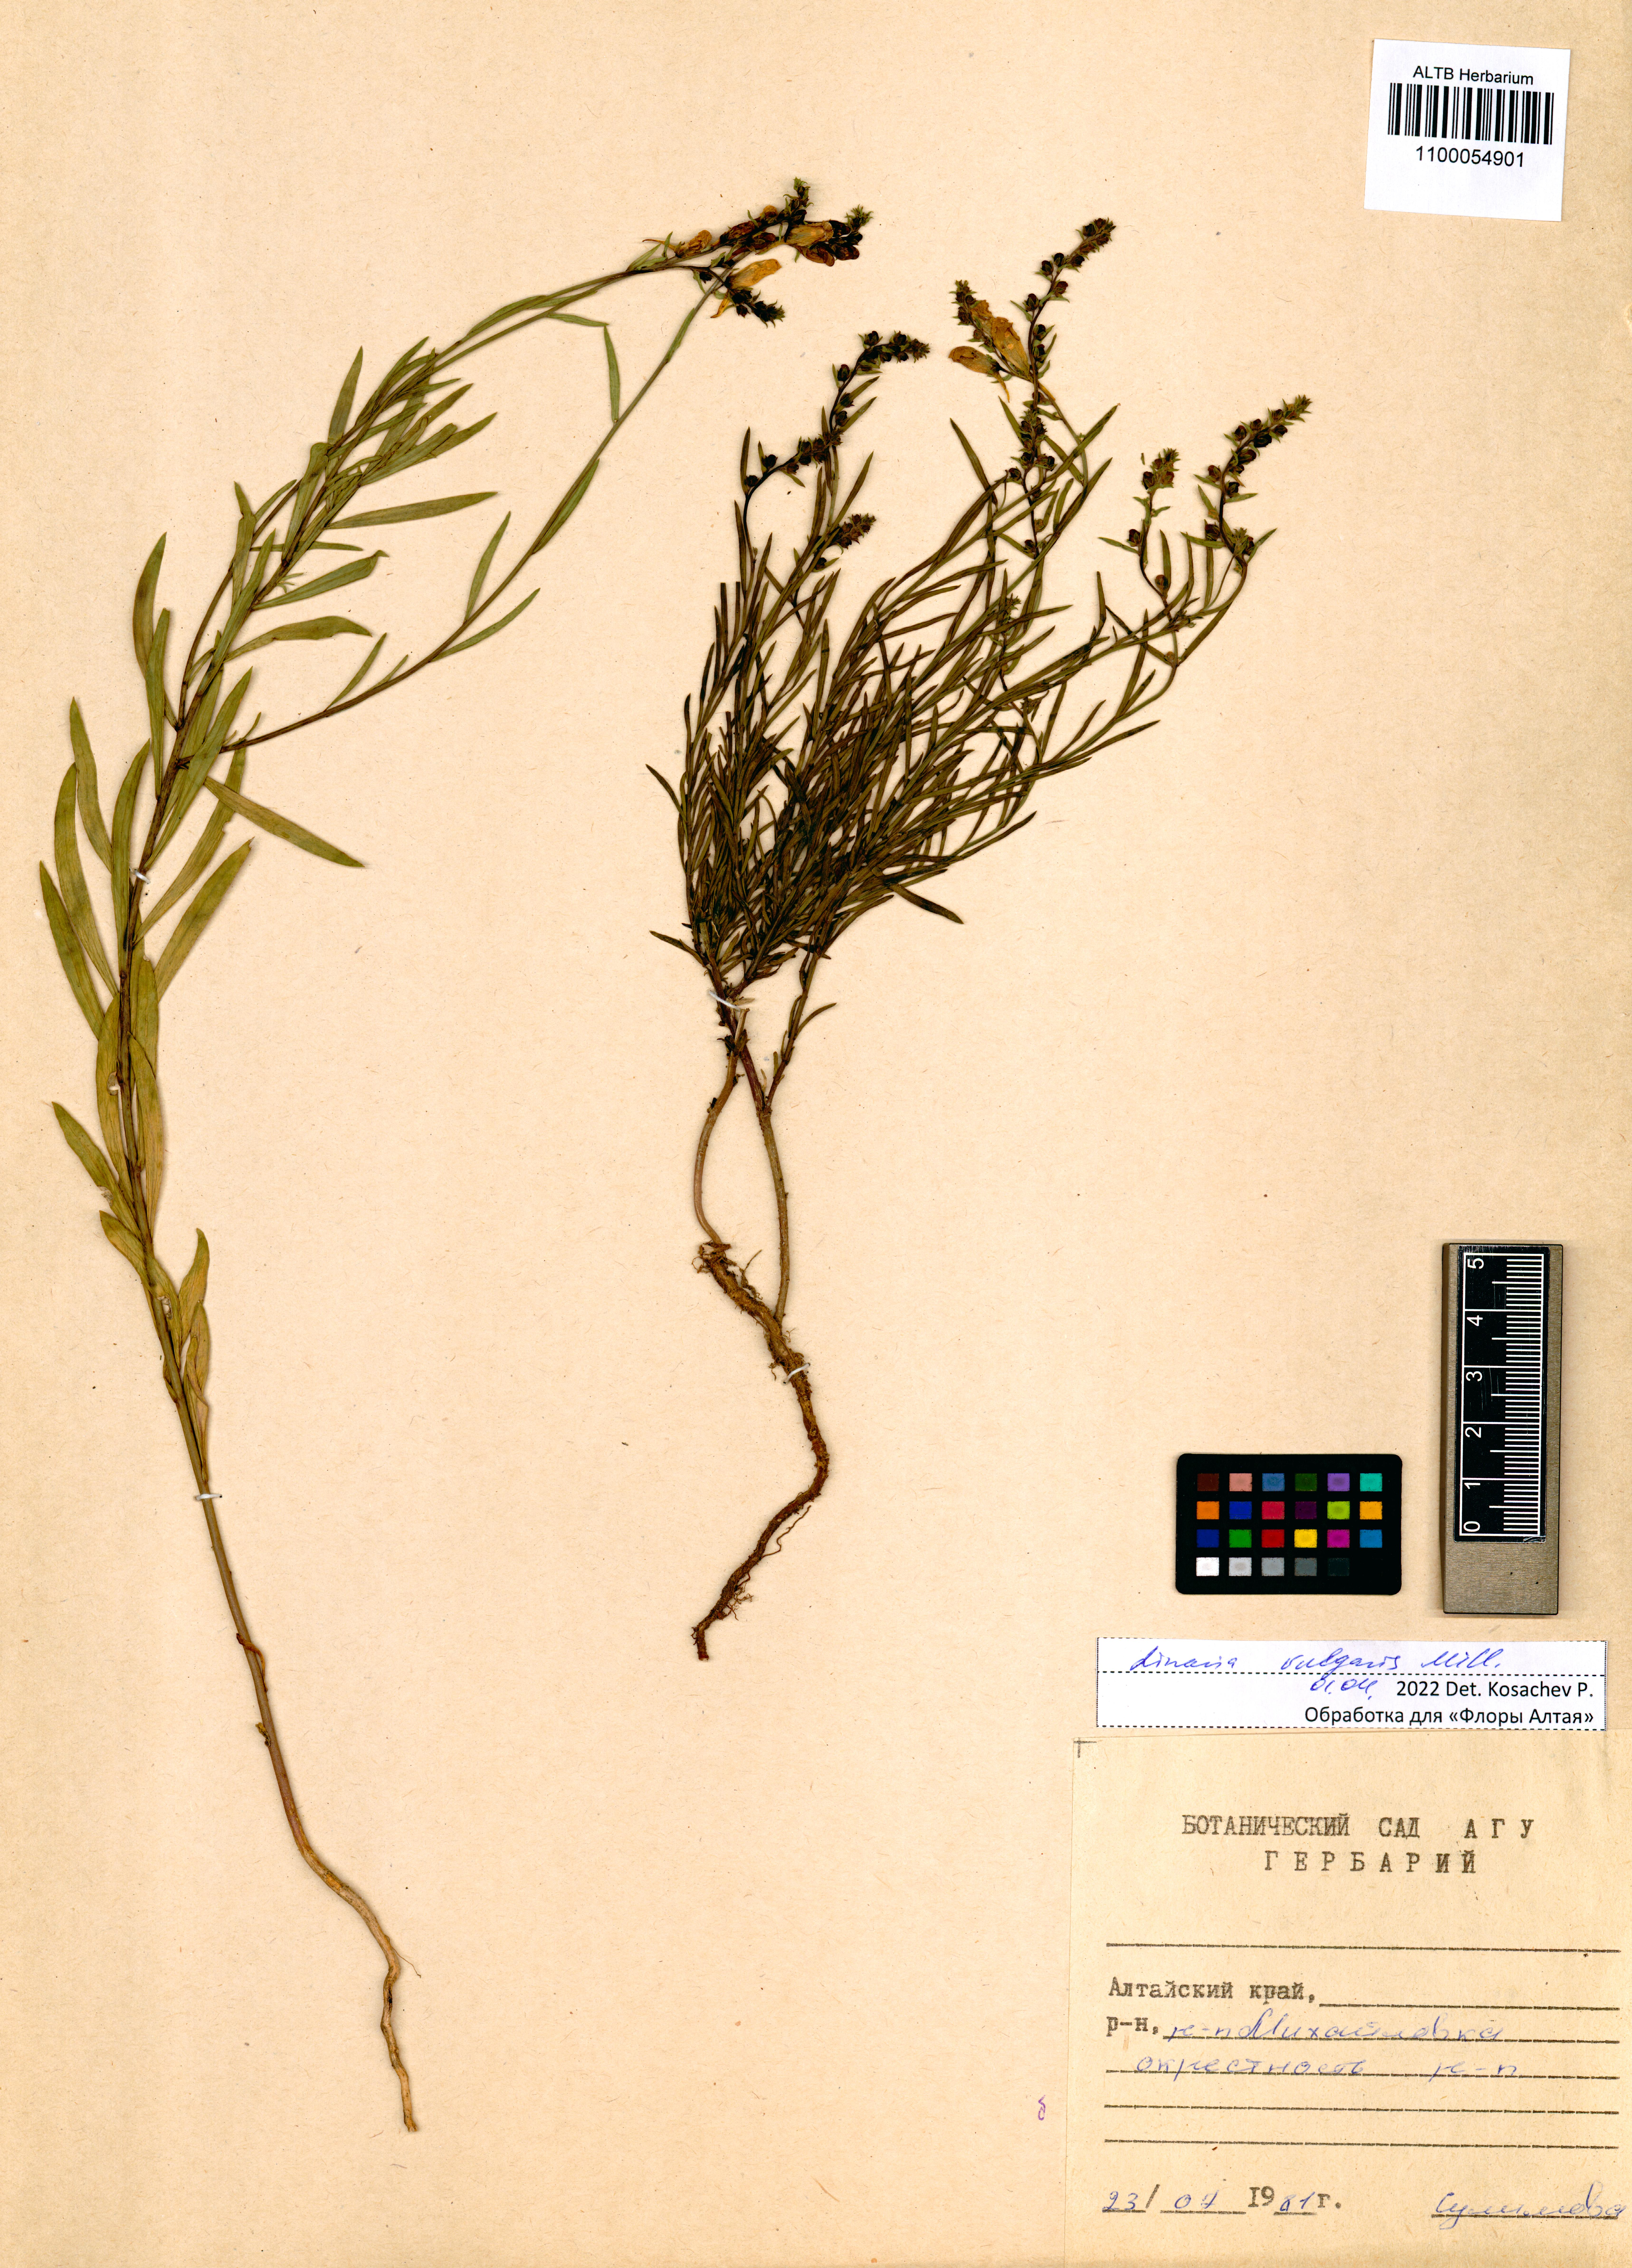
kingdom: Plantae
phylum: Tracheophyta
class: Magnoliopsida
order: Lamiales
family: Plantaginaceae
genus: Linaria
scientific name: Linaria vulgaris
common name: Butter and eggs
